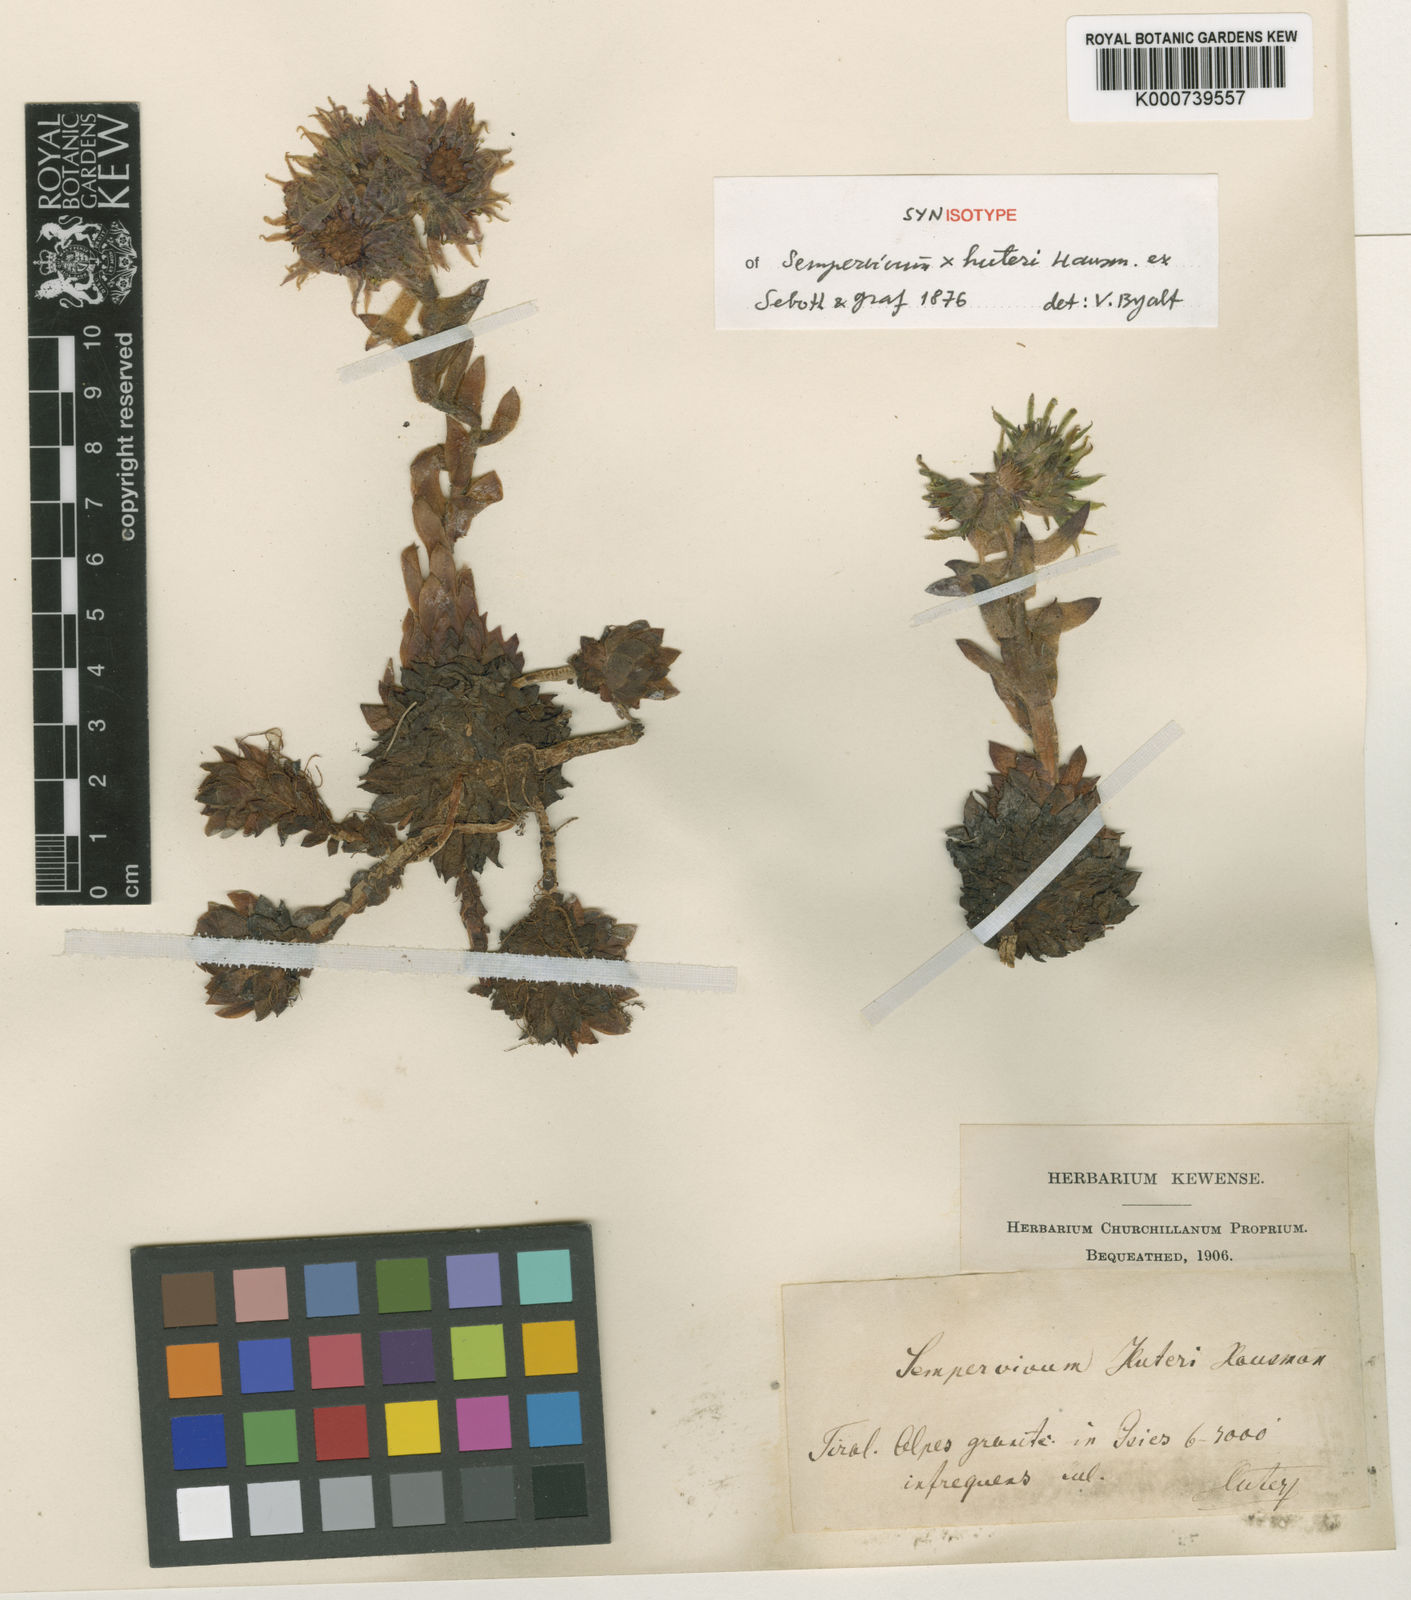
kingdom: Plantae
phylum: Tracheophyta
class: Magnoliopsida
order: Saxifragales
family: Crassulaceae
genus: Sempervivum
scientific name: Sempervivum rupicola
